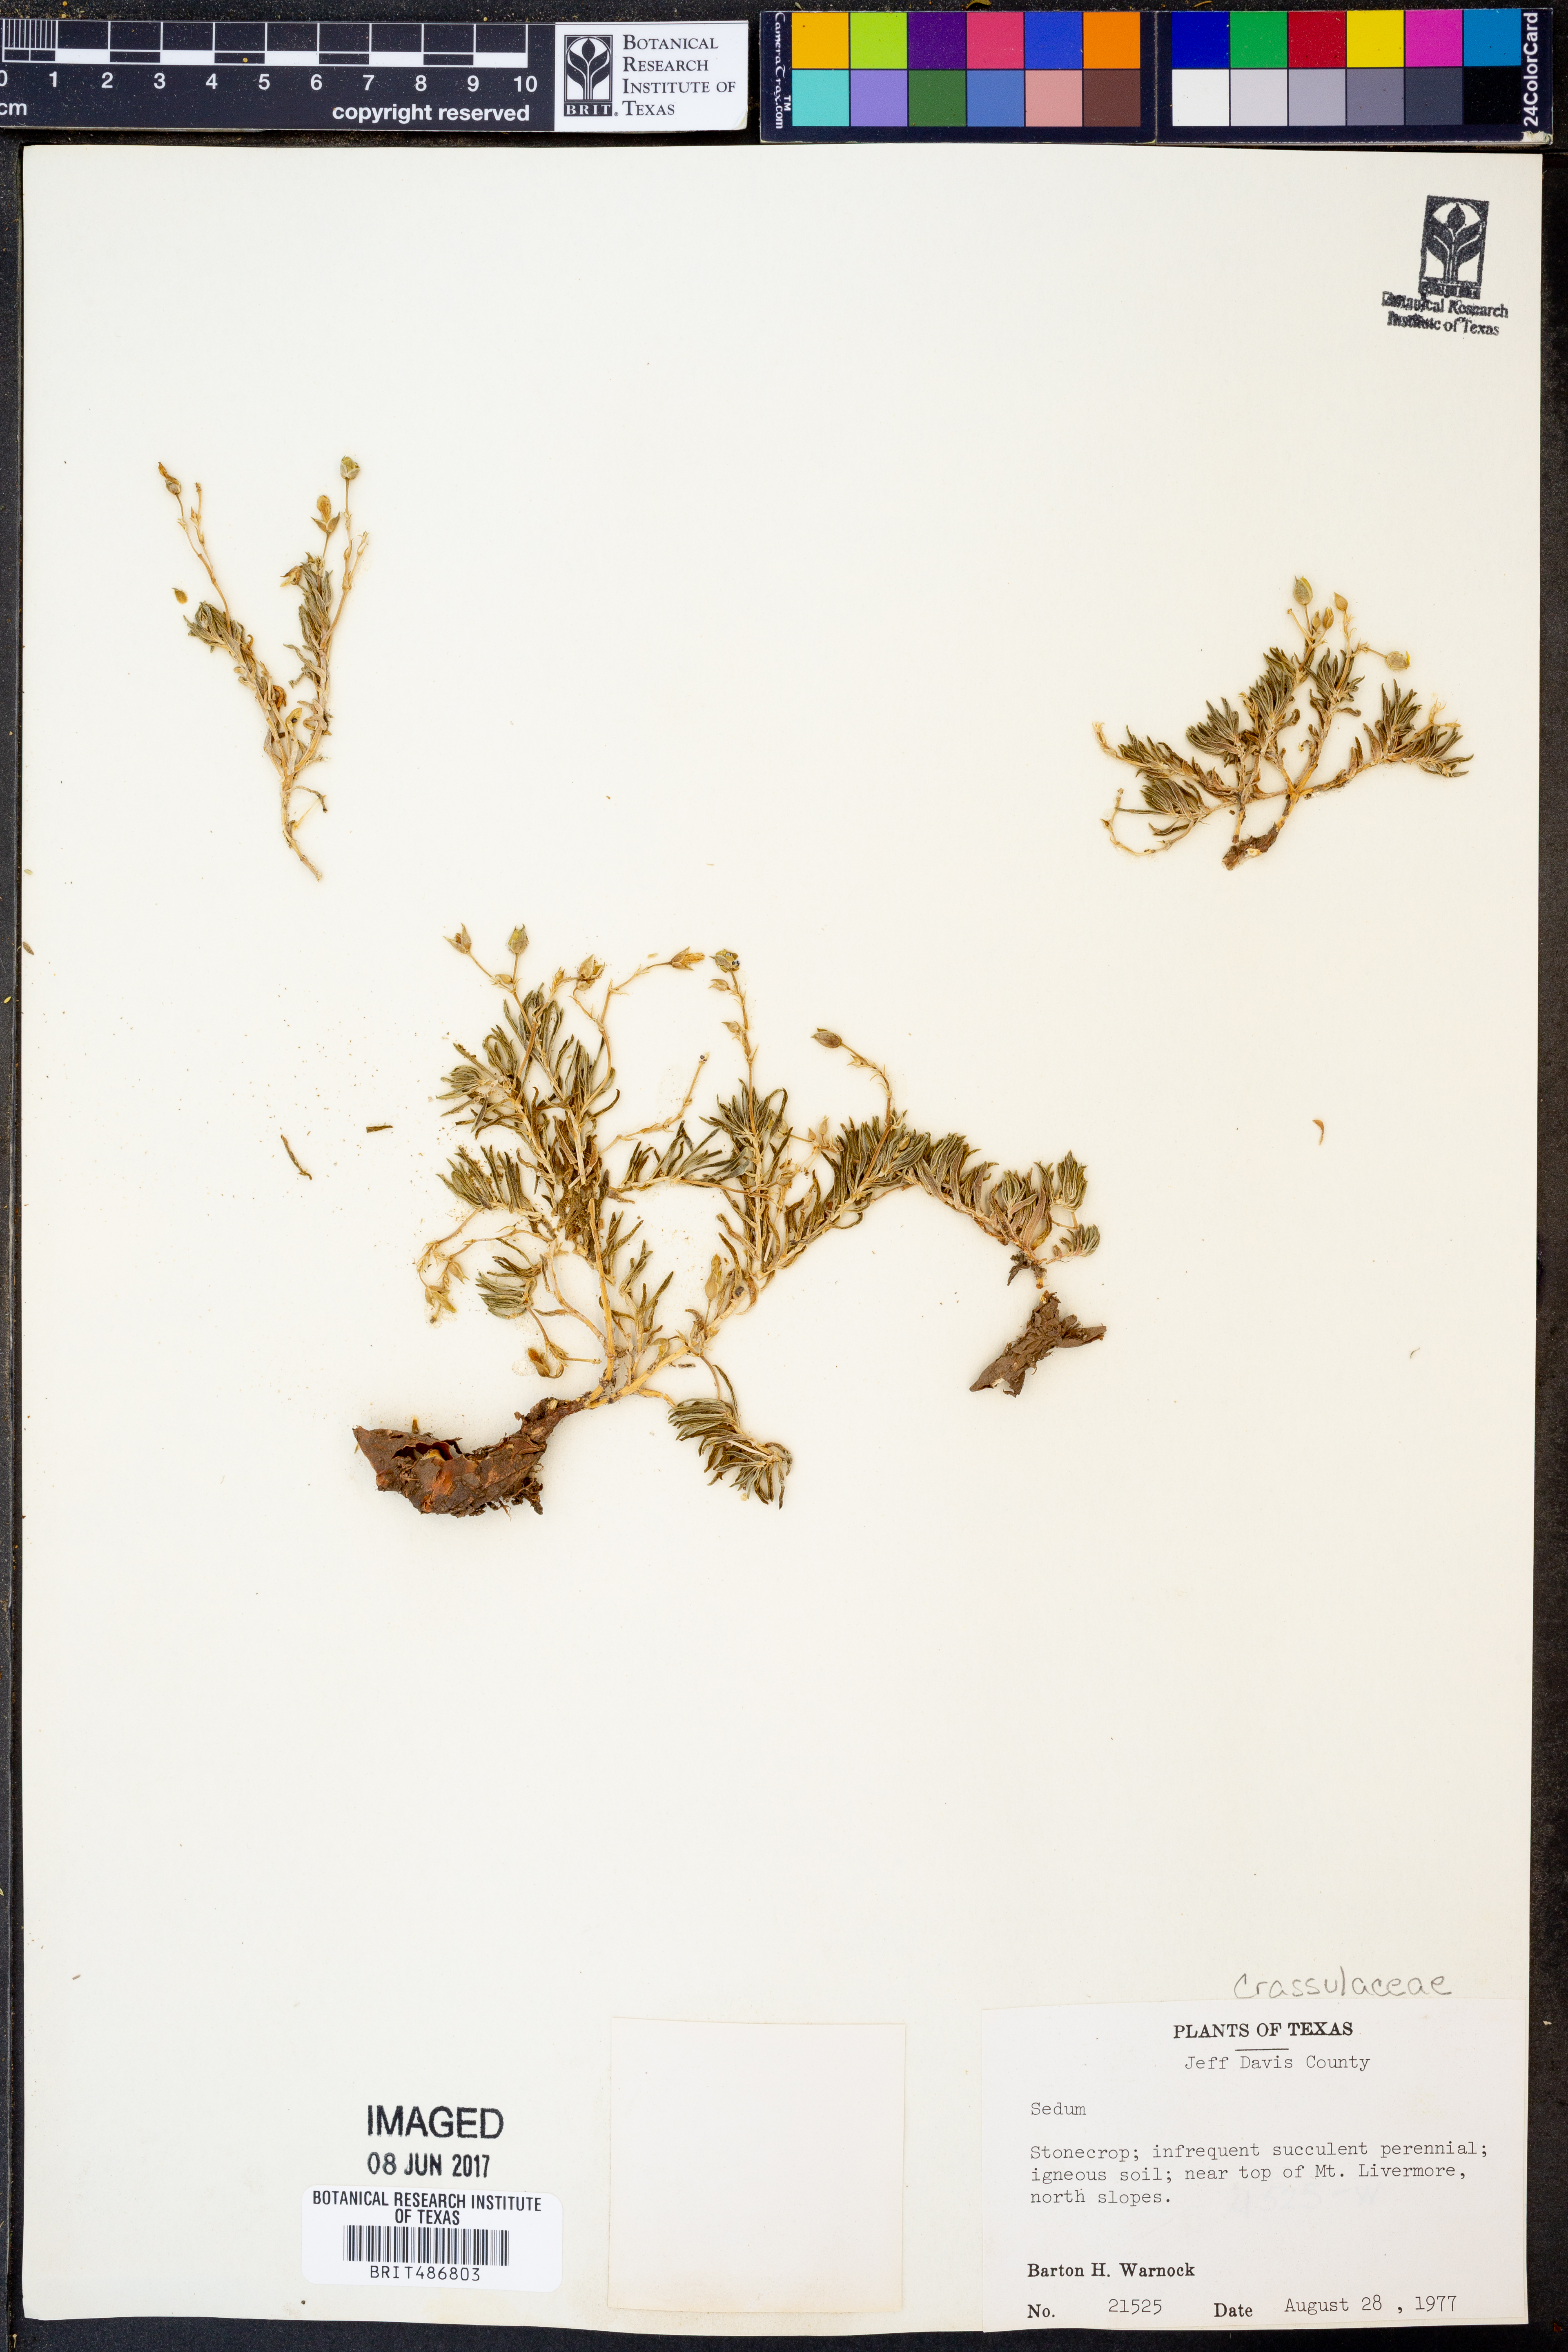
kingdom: Plantae
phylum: Tracheophyta
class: Magnoliopsida
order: Saxifragales
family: Crassulaceae
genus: Sedum
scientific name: Sedum
